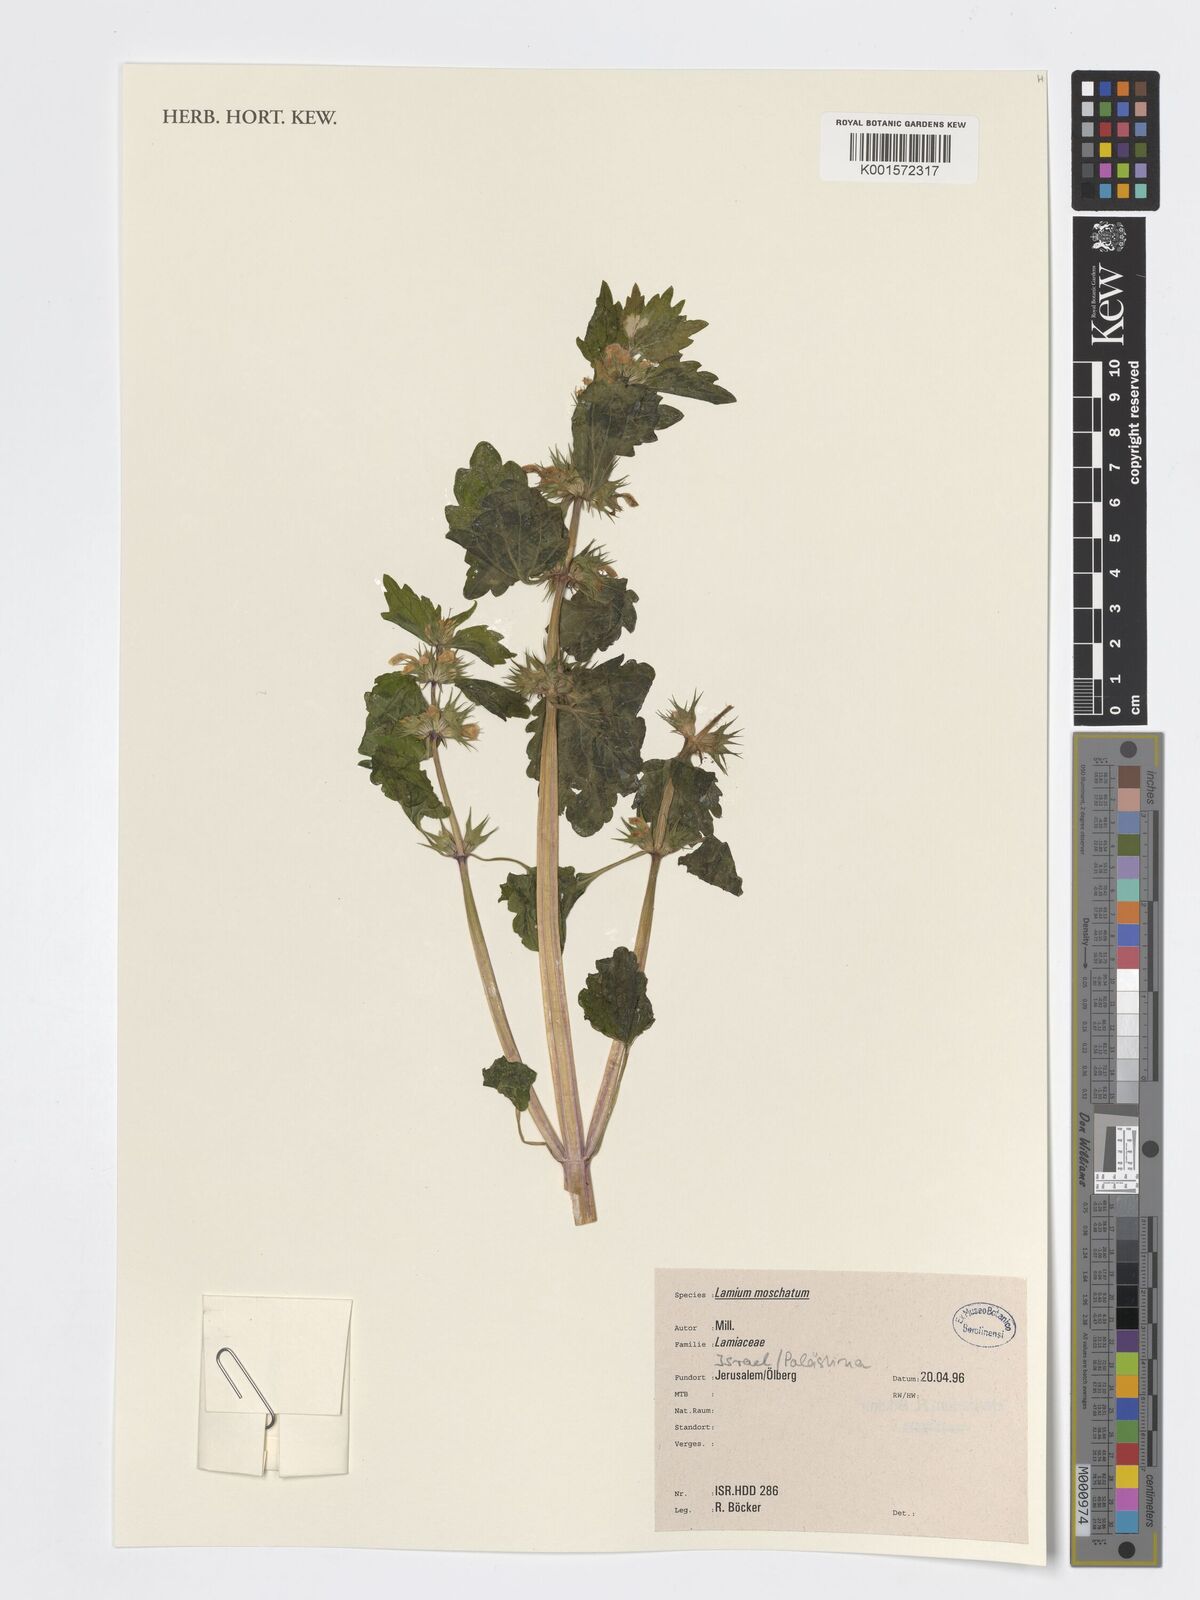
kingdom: Plantae
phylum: Tracheophyta
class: Magnoliopsida
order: Lamiales
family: Lamiaceae
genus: Lamium
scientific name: Lamium moschatum
